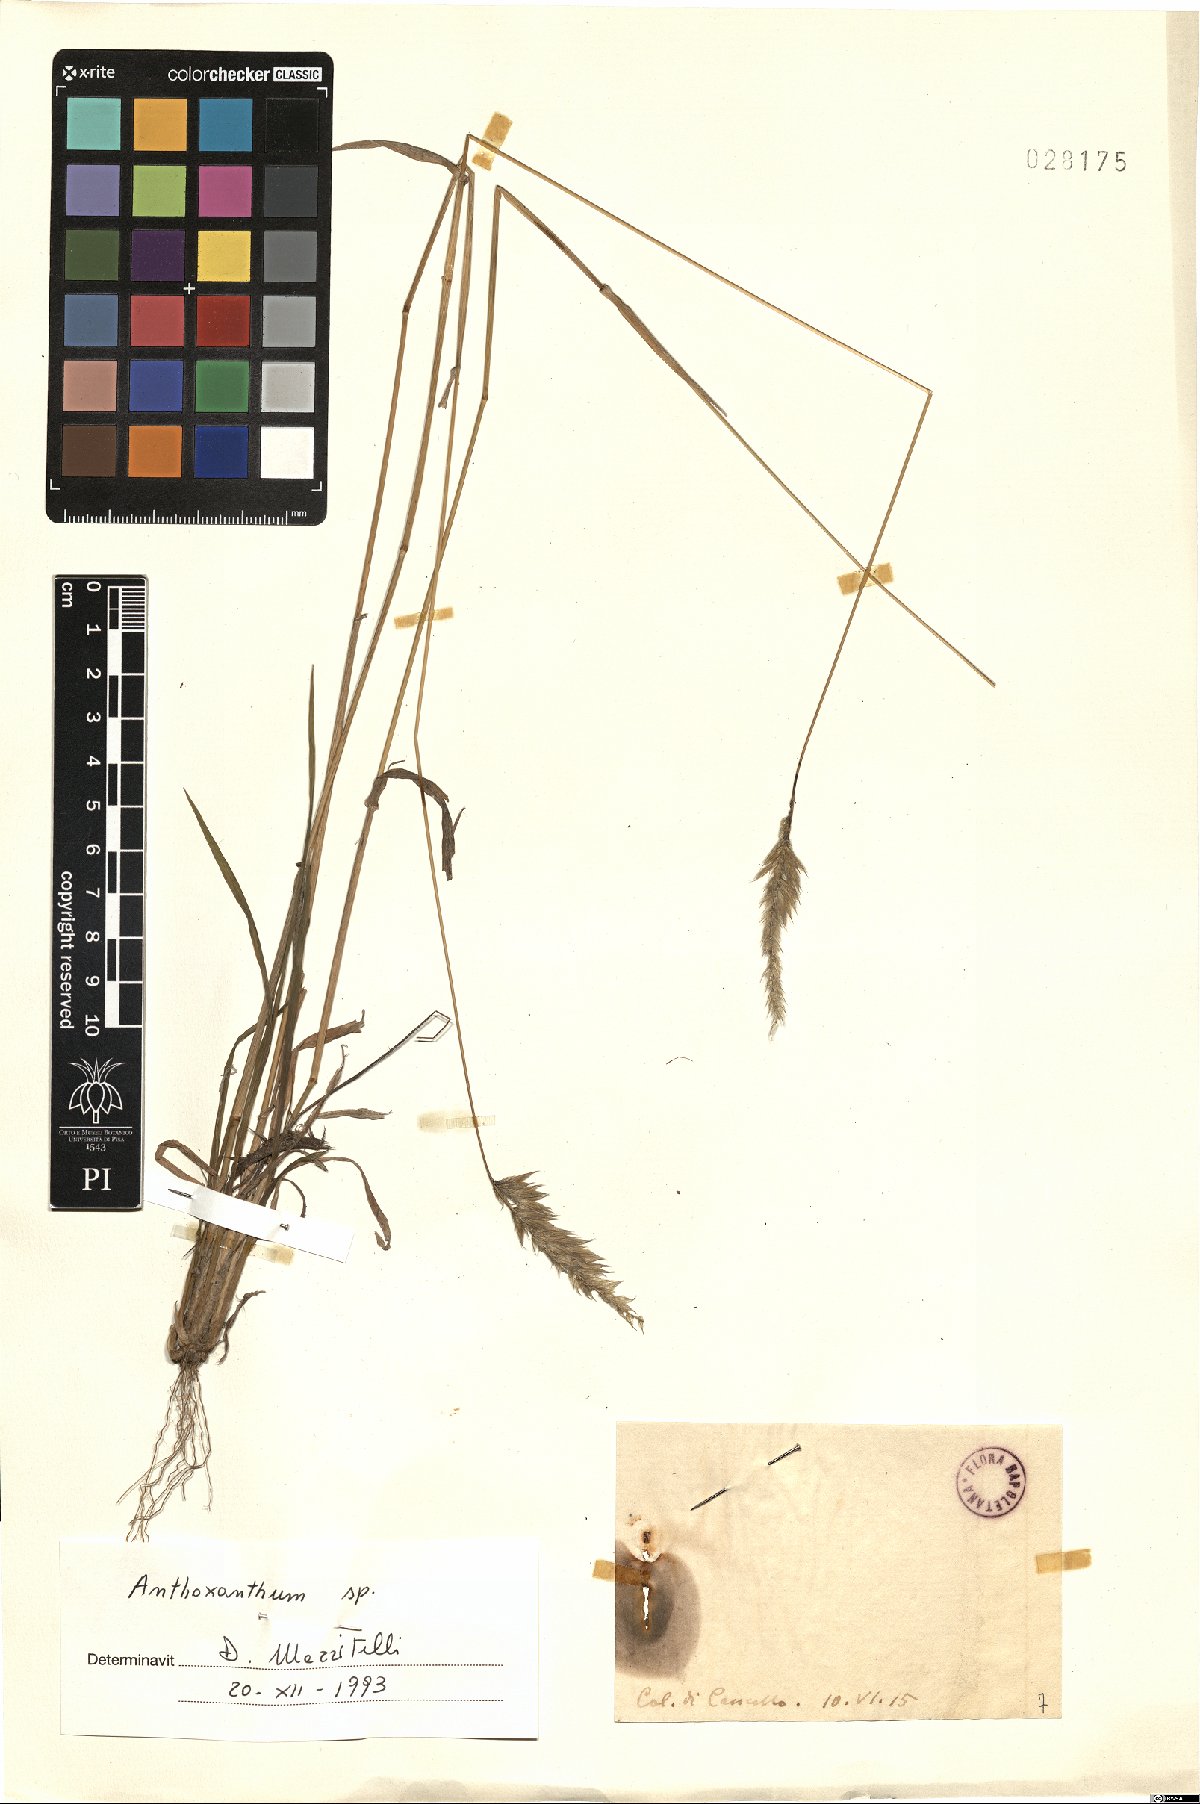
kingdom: Plantae
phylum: Tracheophyta
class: Liliopsida
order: Poales
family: Poaceae
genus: Anthoxanthum
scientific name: Anthoxanthum
